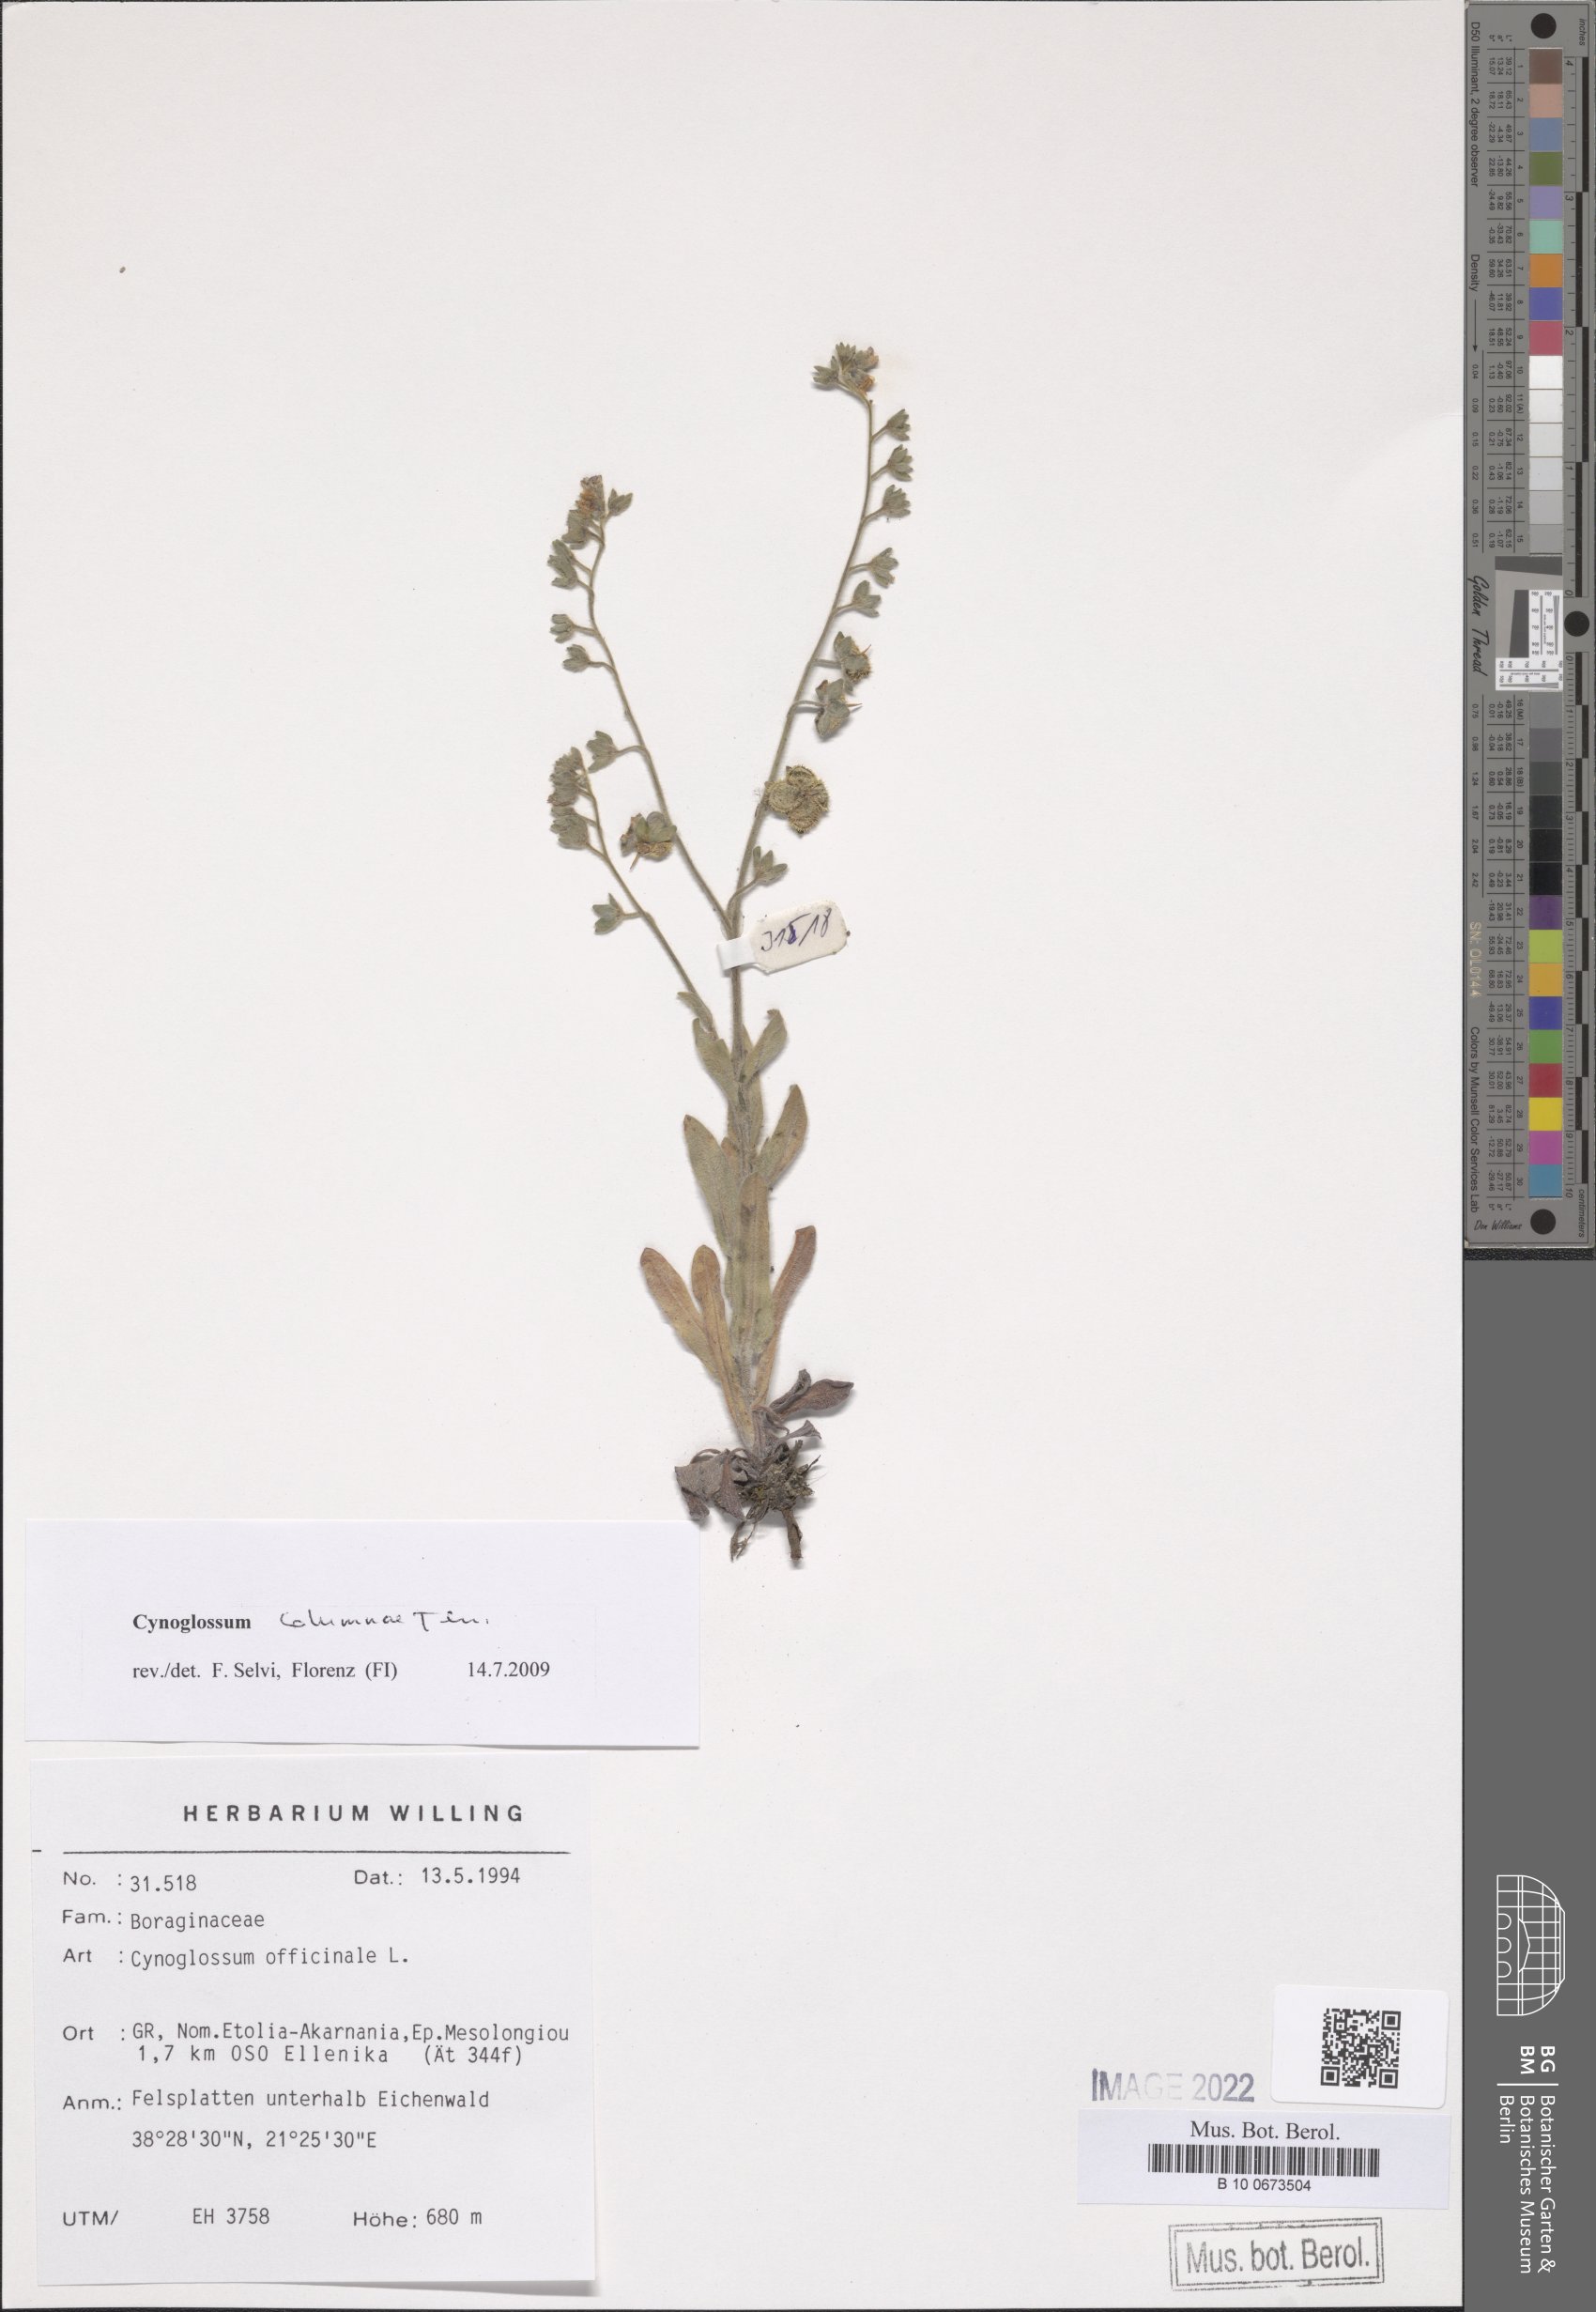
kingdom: Plantae
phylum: Tracheophyta
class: Magnoliopsida
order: Boraginales
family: Boraginaceae
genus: Rindera
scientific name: Rindera columnae
